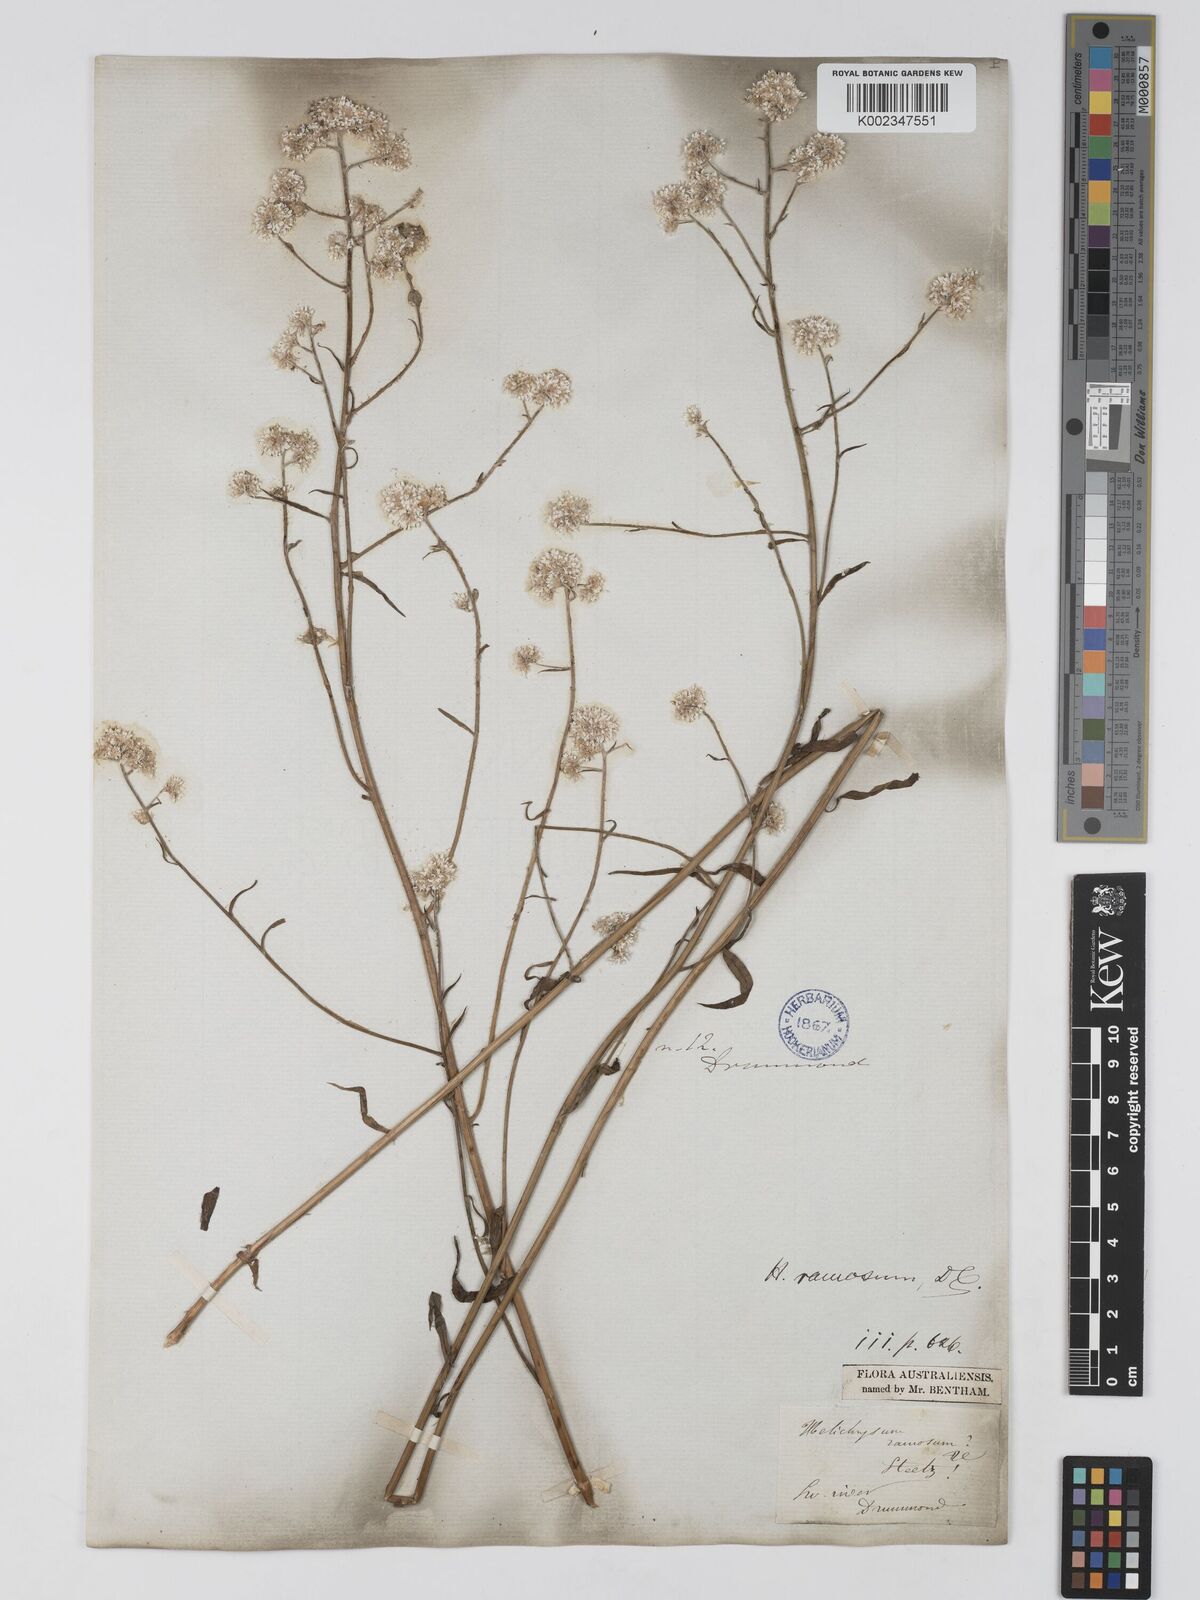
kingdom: Plantae
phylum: Tracheophyta
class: Magnoliopsida
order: Asterales
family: Asteraceae
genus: Pithocarpa
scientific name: Pithocarpa ramosa
